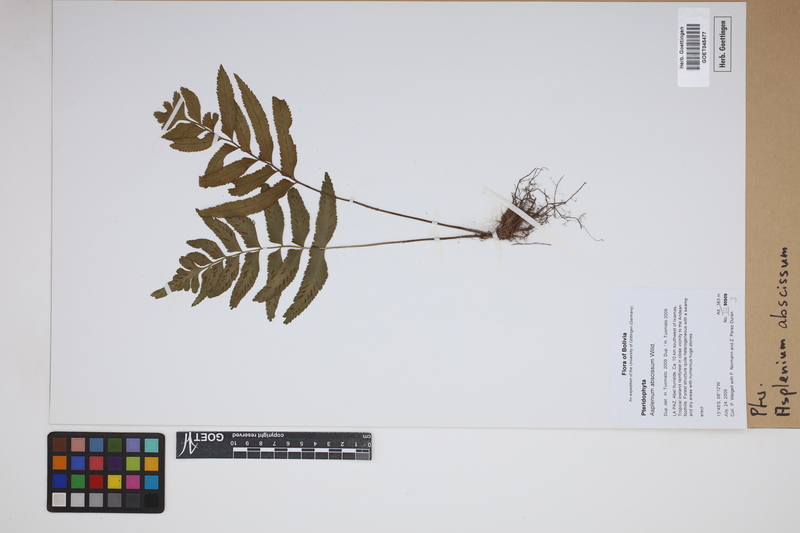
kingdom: Plantae
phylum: Tracheophyta
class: Polypodiopsida
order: Polypodiales
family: Aspleniaceae
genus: Asplenium
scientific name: Asplenium abscissum
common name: Cutleaf spleenwort
